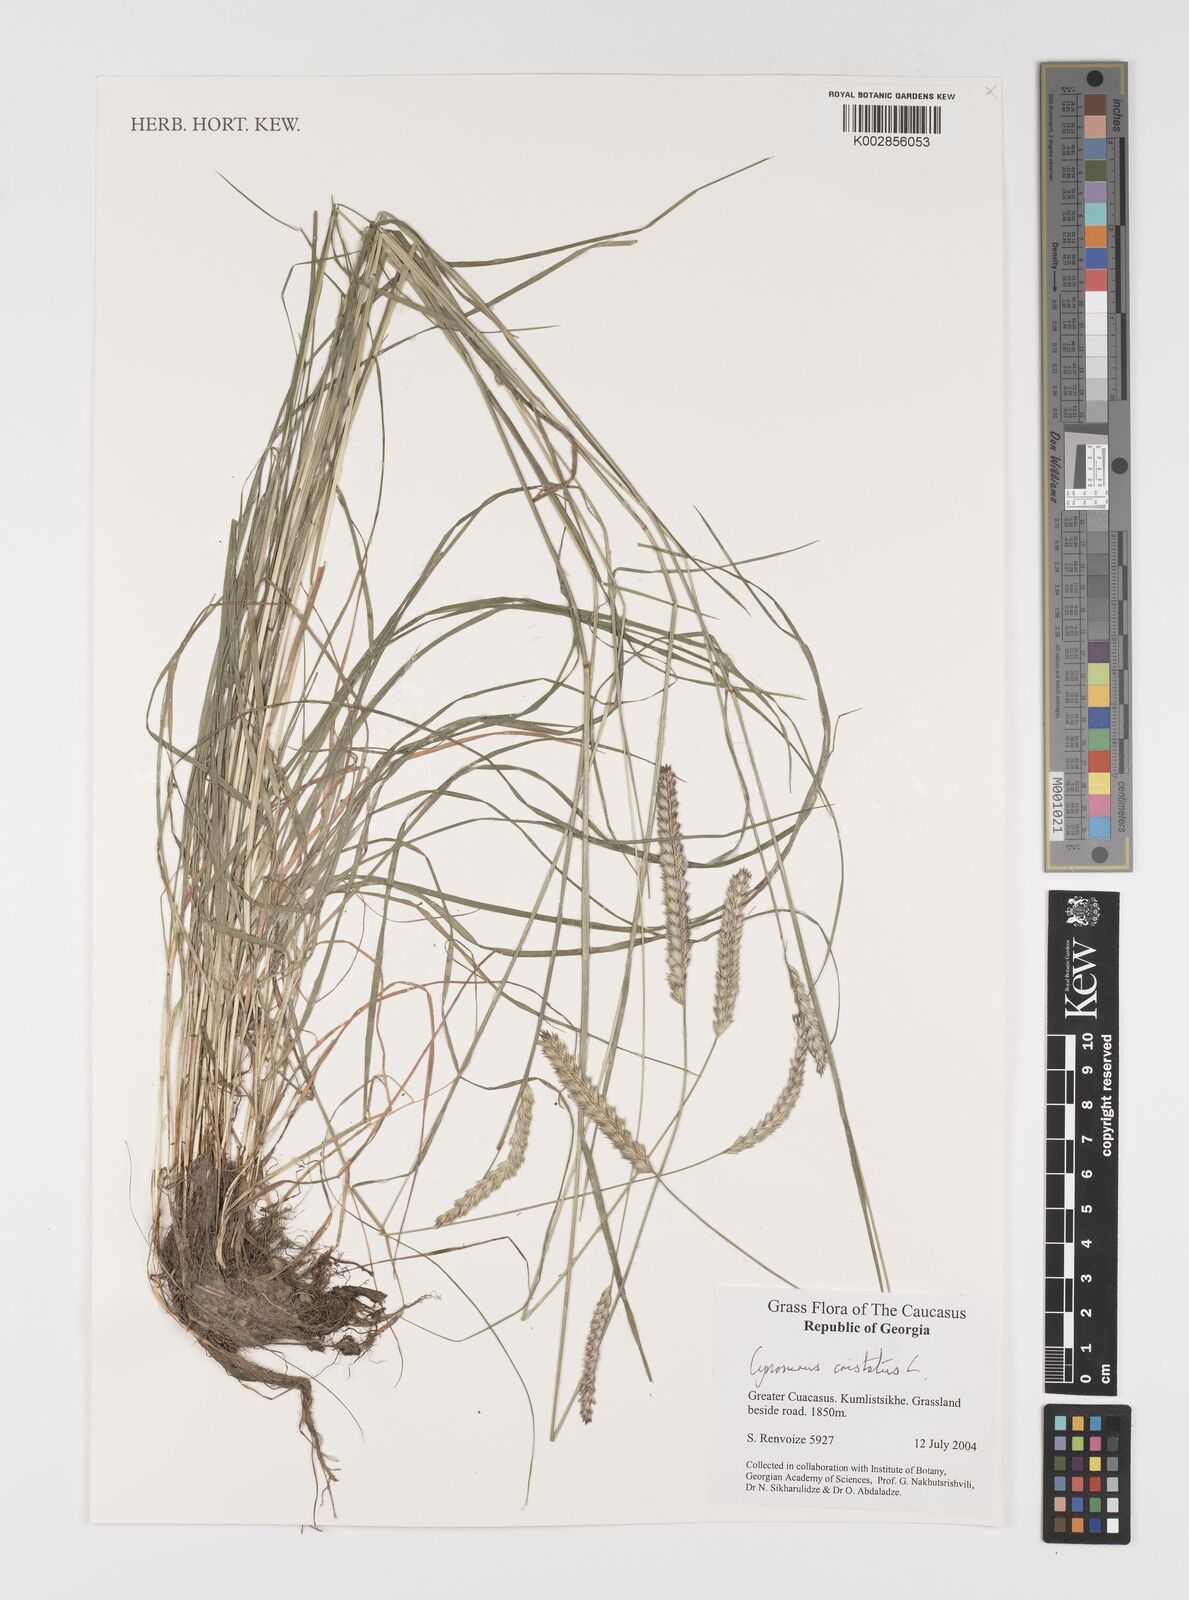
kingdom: Plantae
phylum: Tracheophyta
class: Liliopsida
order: Poales
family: Poaceae
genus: Cynosurus
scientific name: Cynosurus cristatus
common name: Crested dog's-tail
